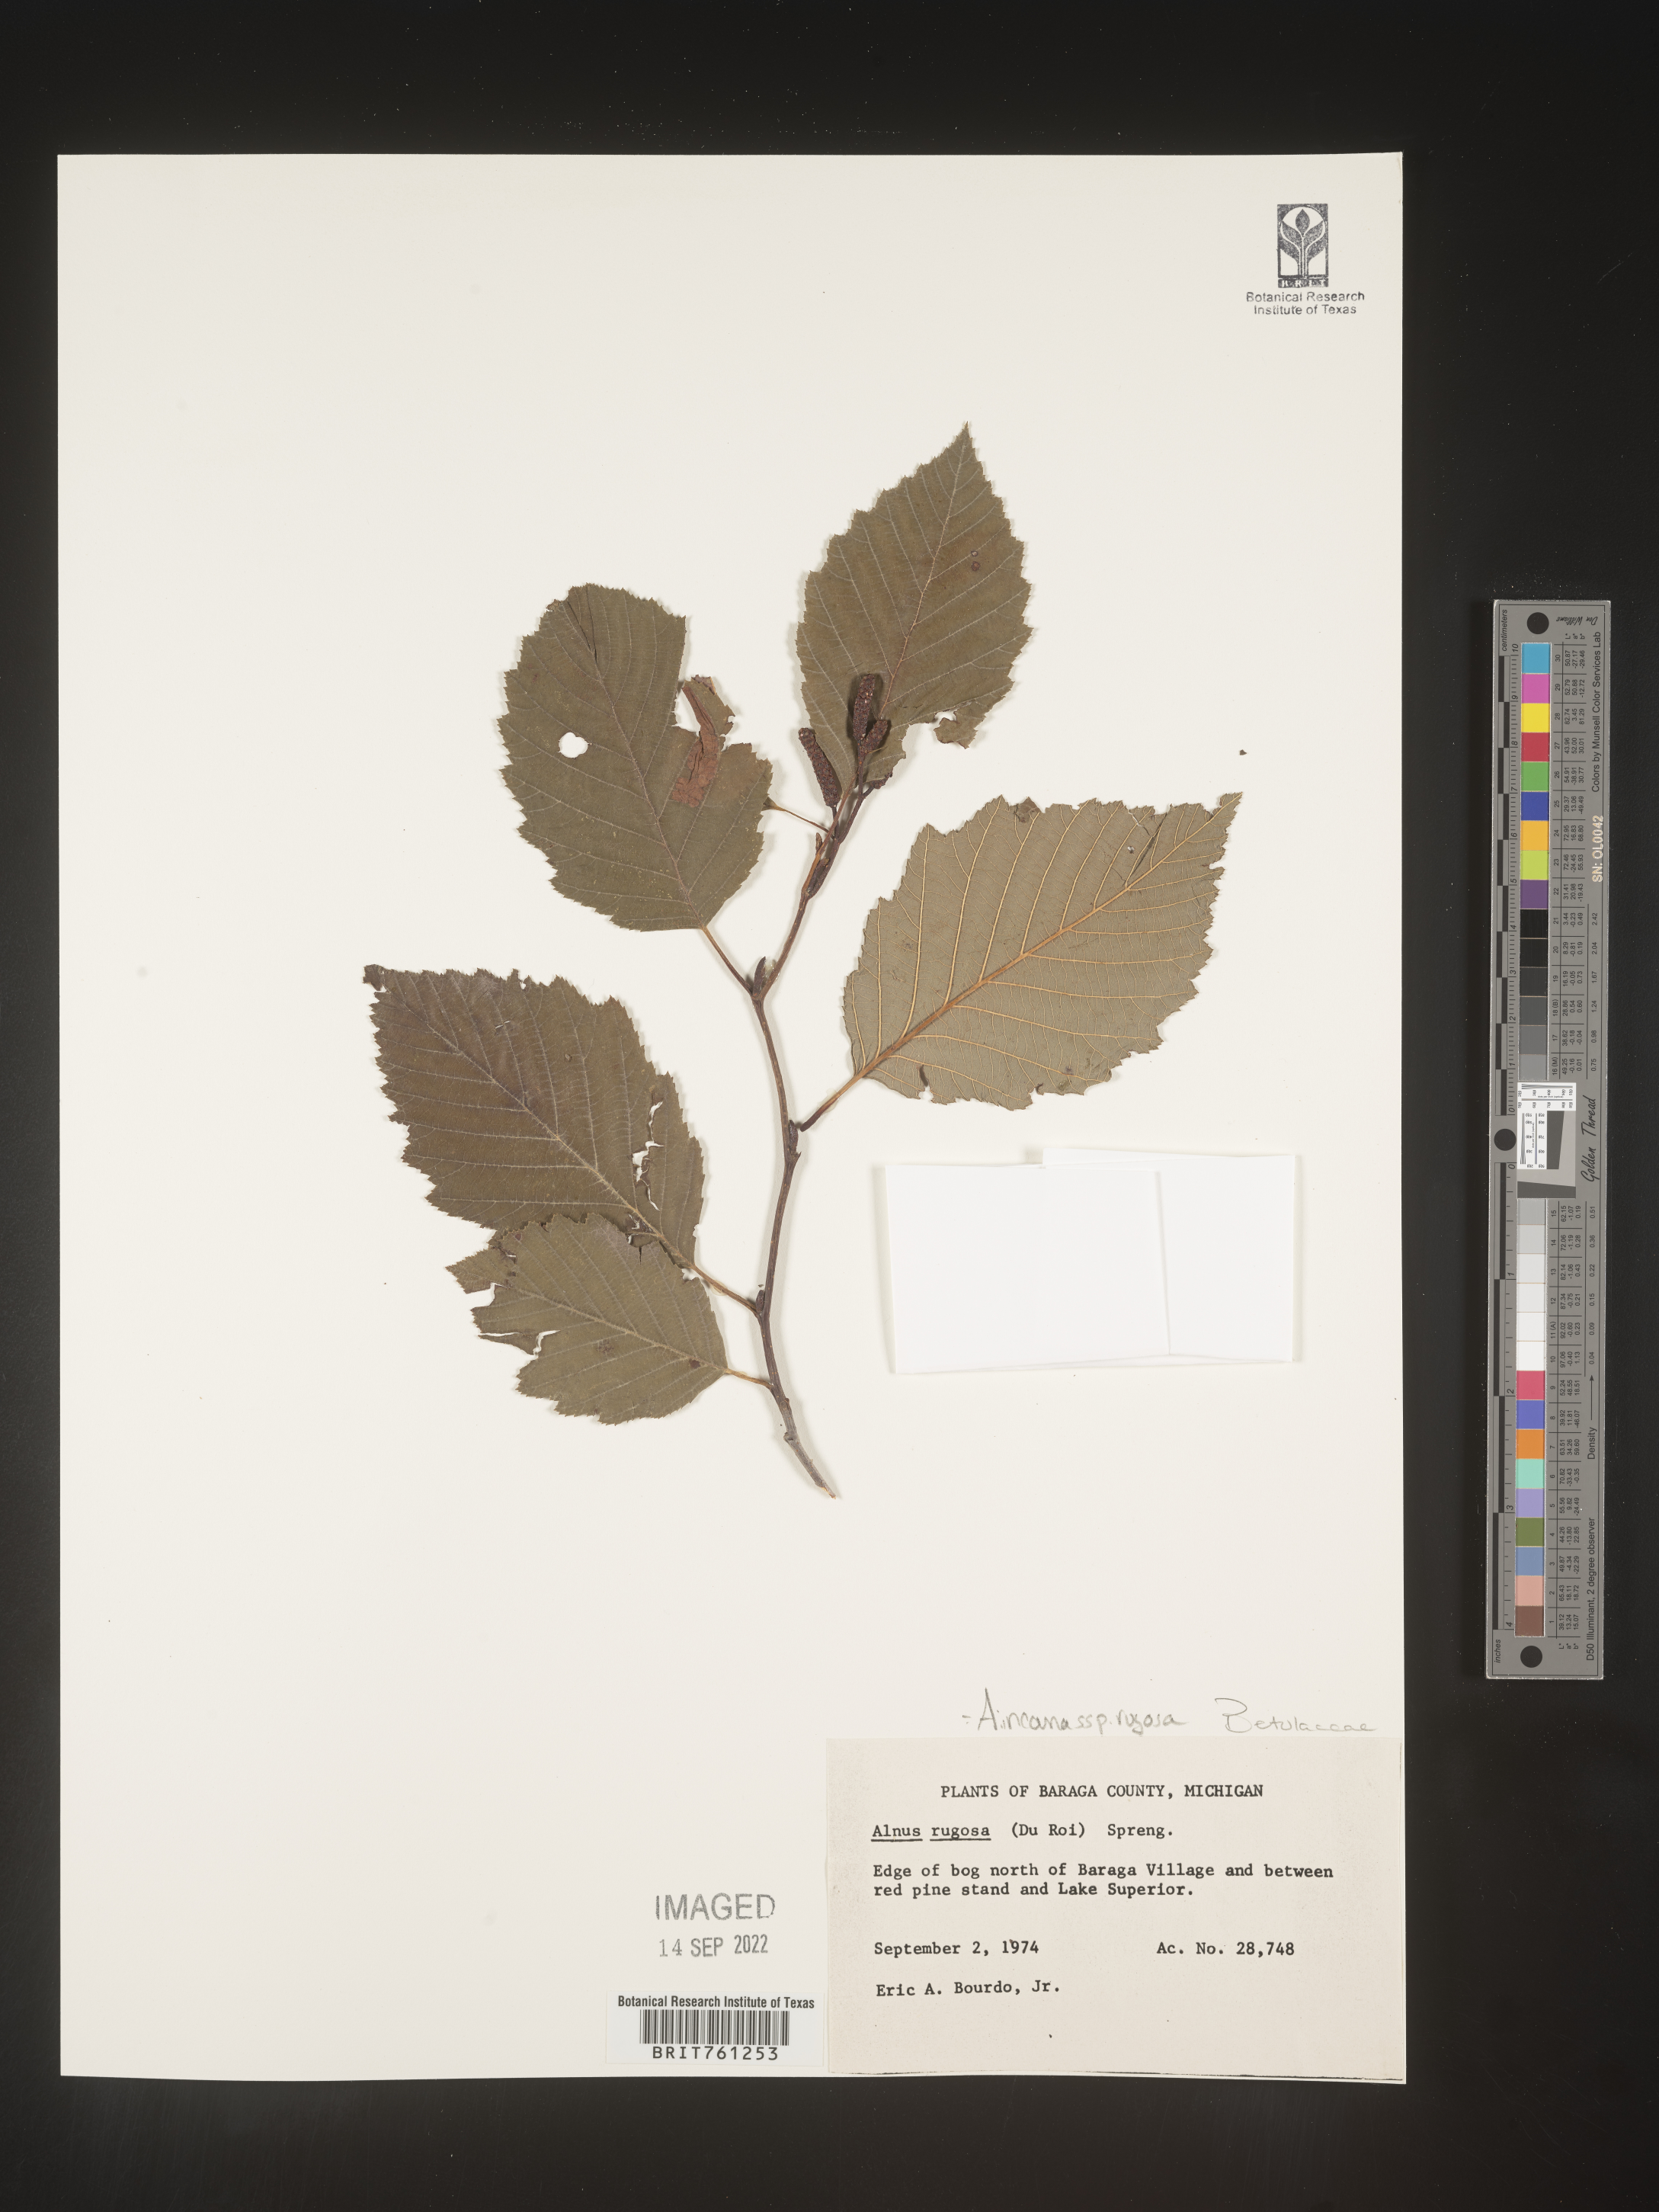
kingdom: Plantae
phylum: Tracheophyta
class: Magnoliopsida
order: Fagales
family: Betulaceae
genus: Alnus
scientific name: Alnus incana
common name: Grey alder
